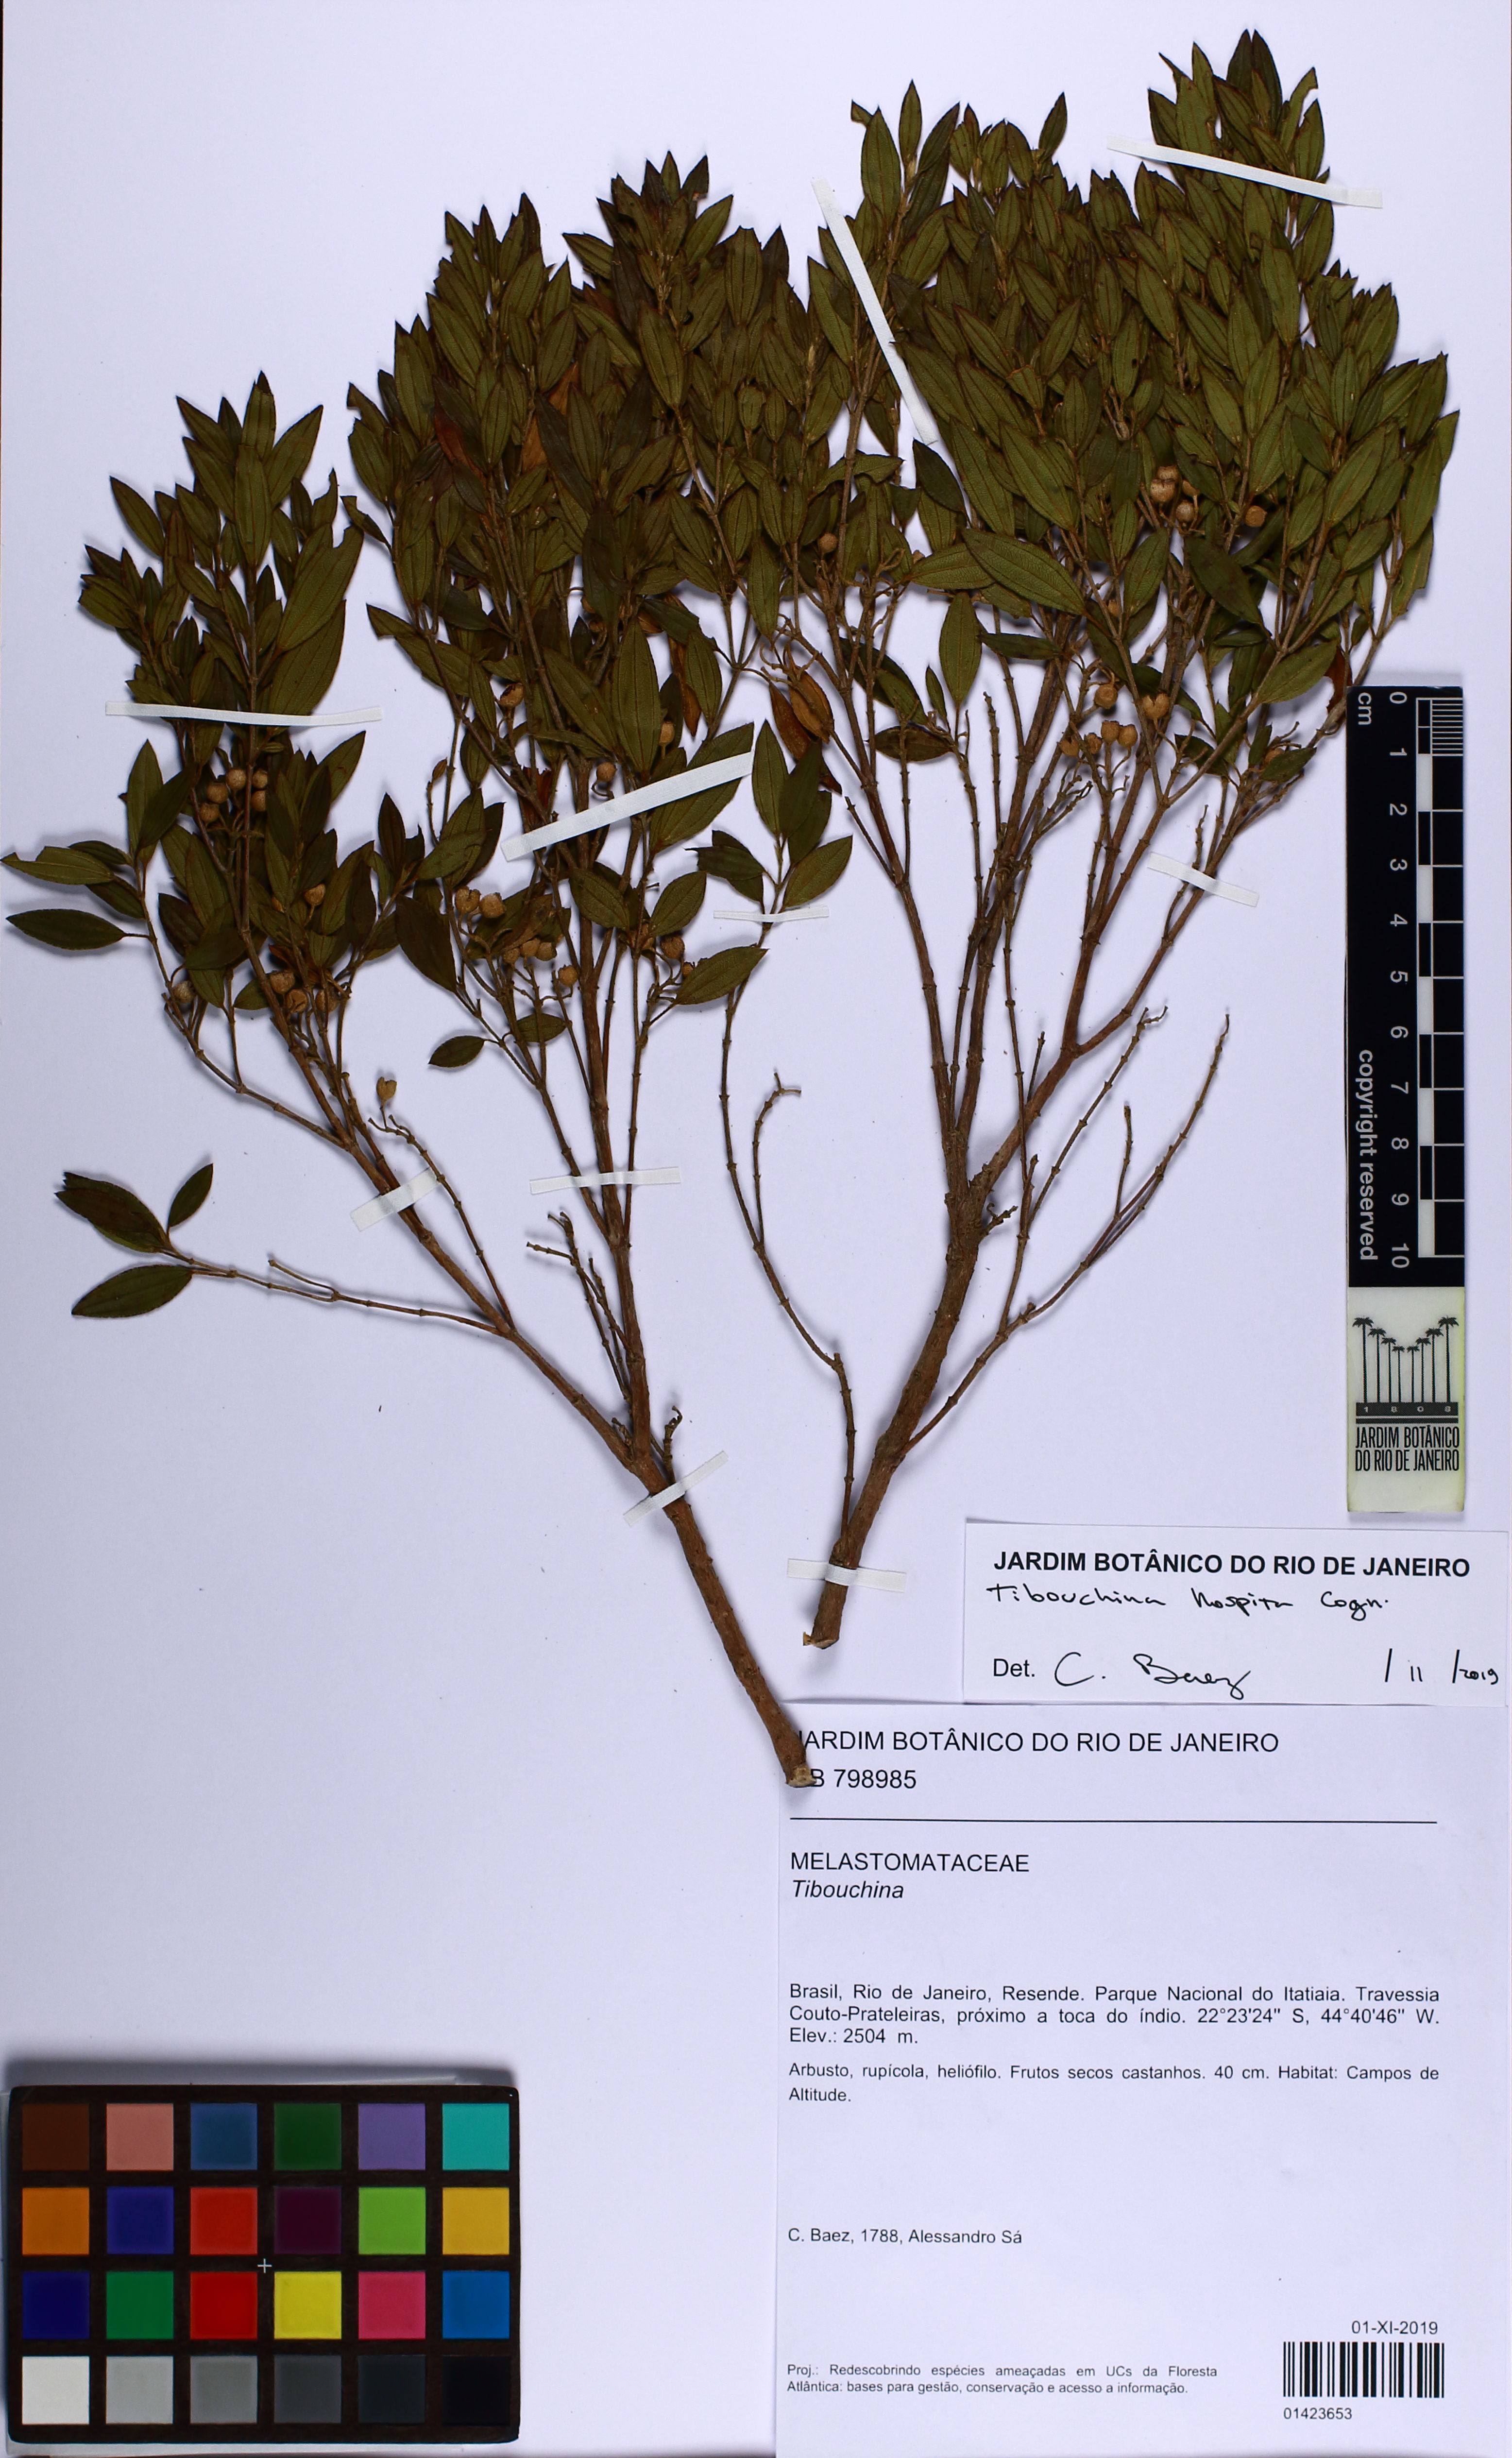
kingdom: Plantae
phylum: Tracheophyta
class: Magnoliopsida
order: Myrtales
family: Melastomataceae
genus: Pleroma
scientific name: Pleroma hospitum
